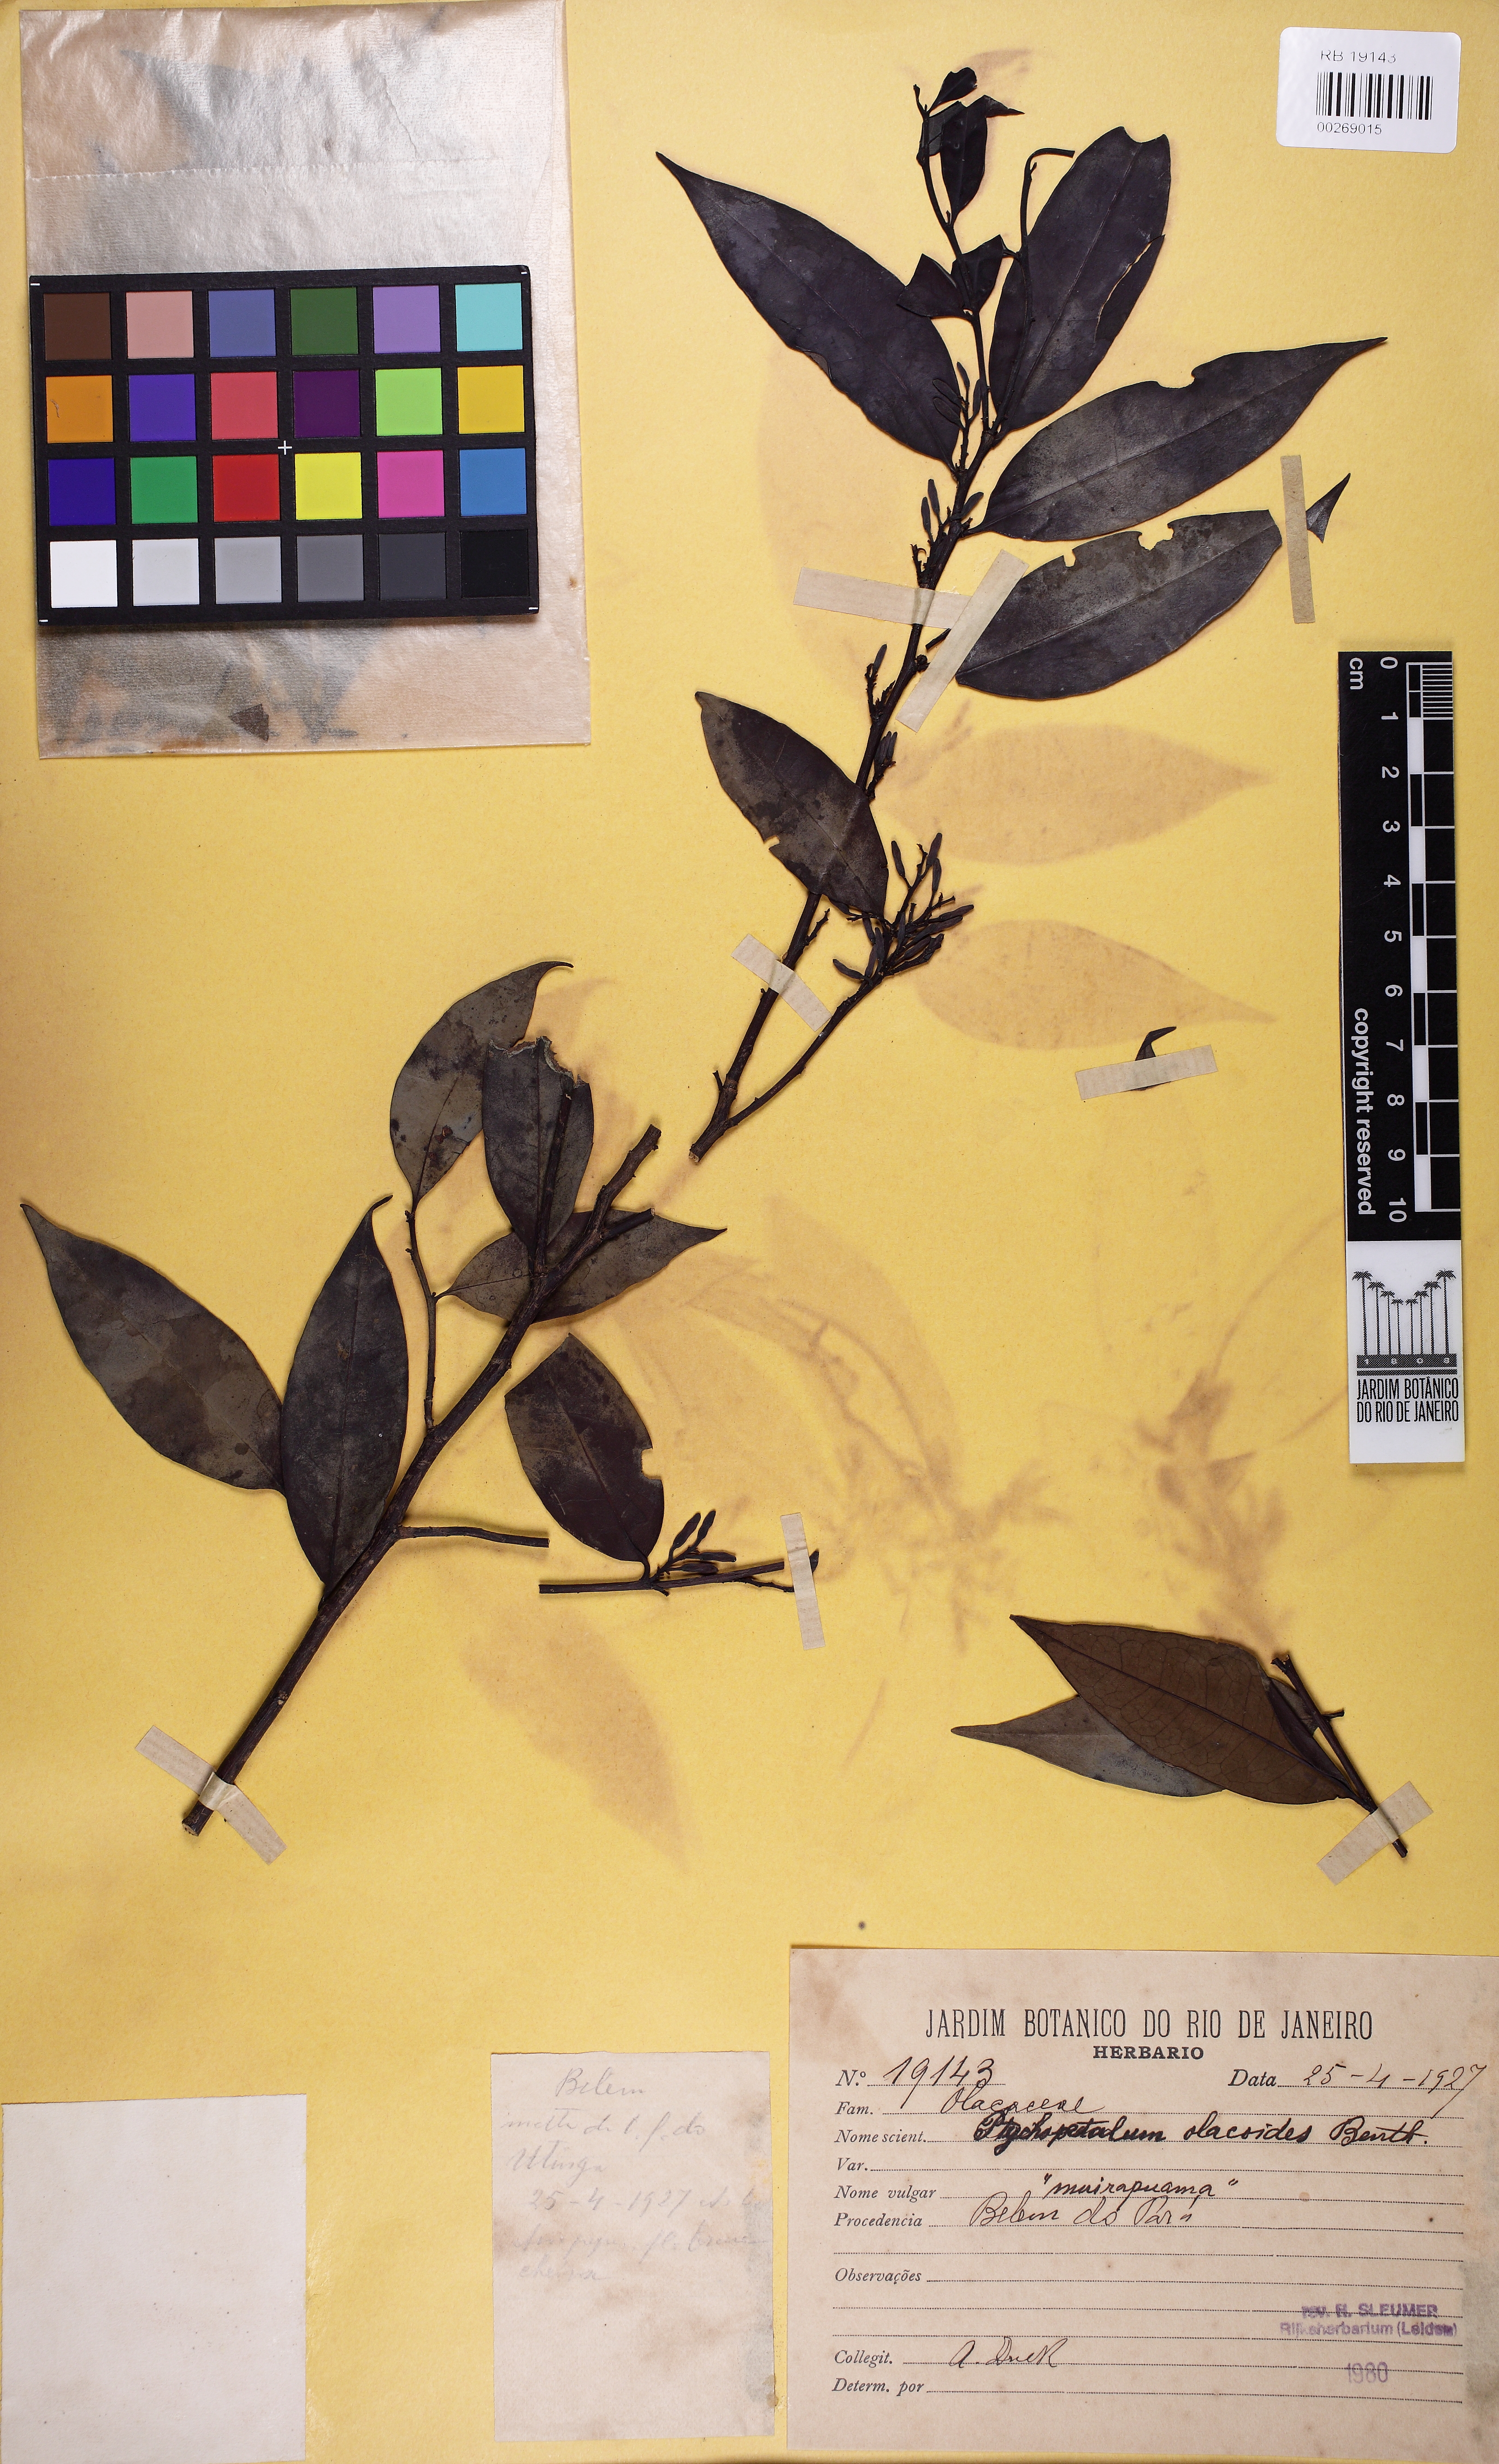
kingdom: Plantae
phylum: Tracheophyta
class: Magnoliopsida
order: Santalales
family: Olacaceae
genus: Ptychopetalum
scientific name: Ptychopetalum olacoides
